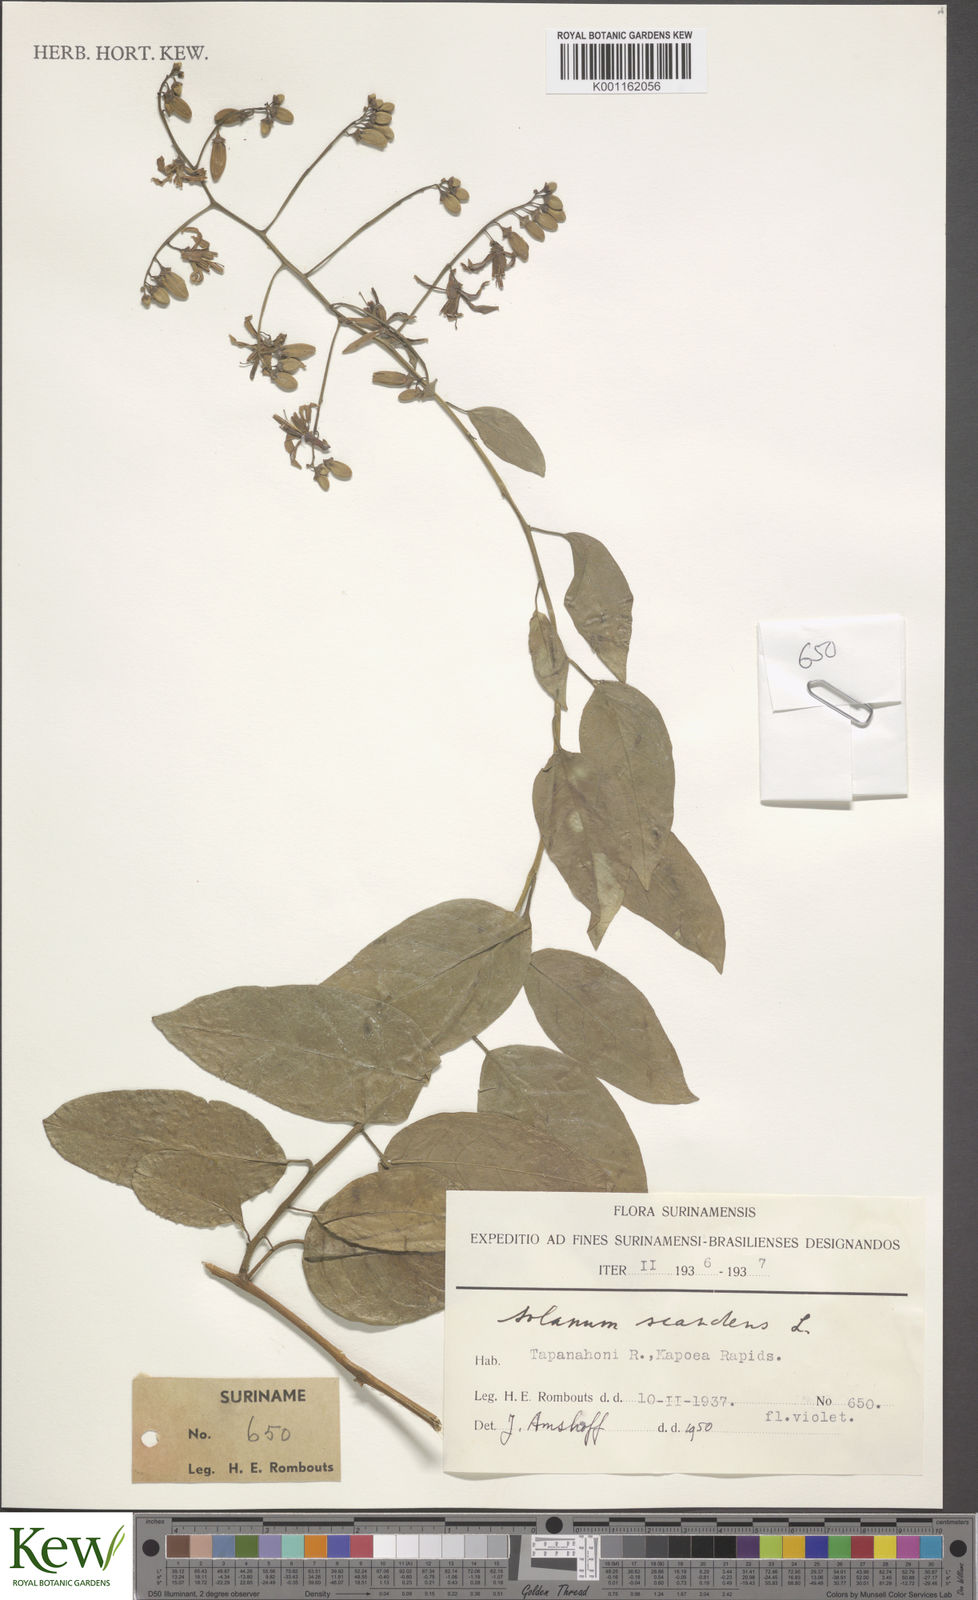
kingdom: Plantae
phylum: Tracheophyta
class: Magnoliopsida
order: Solanales
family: Solanaceae
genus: Solanum
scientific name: Solanum uncinellum
